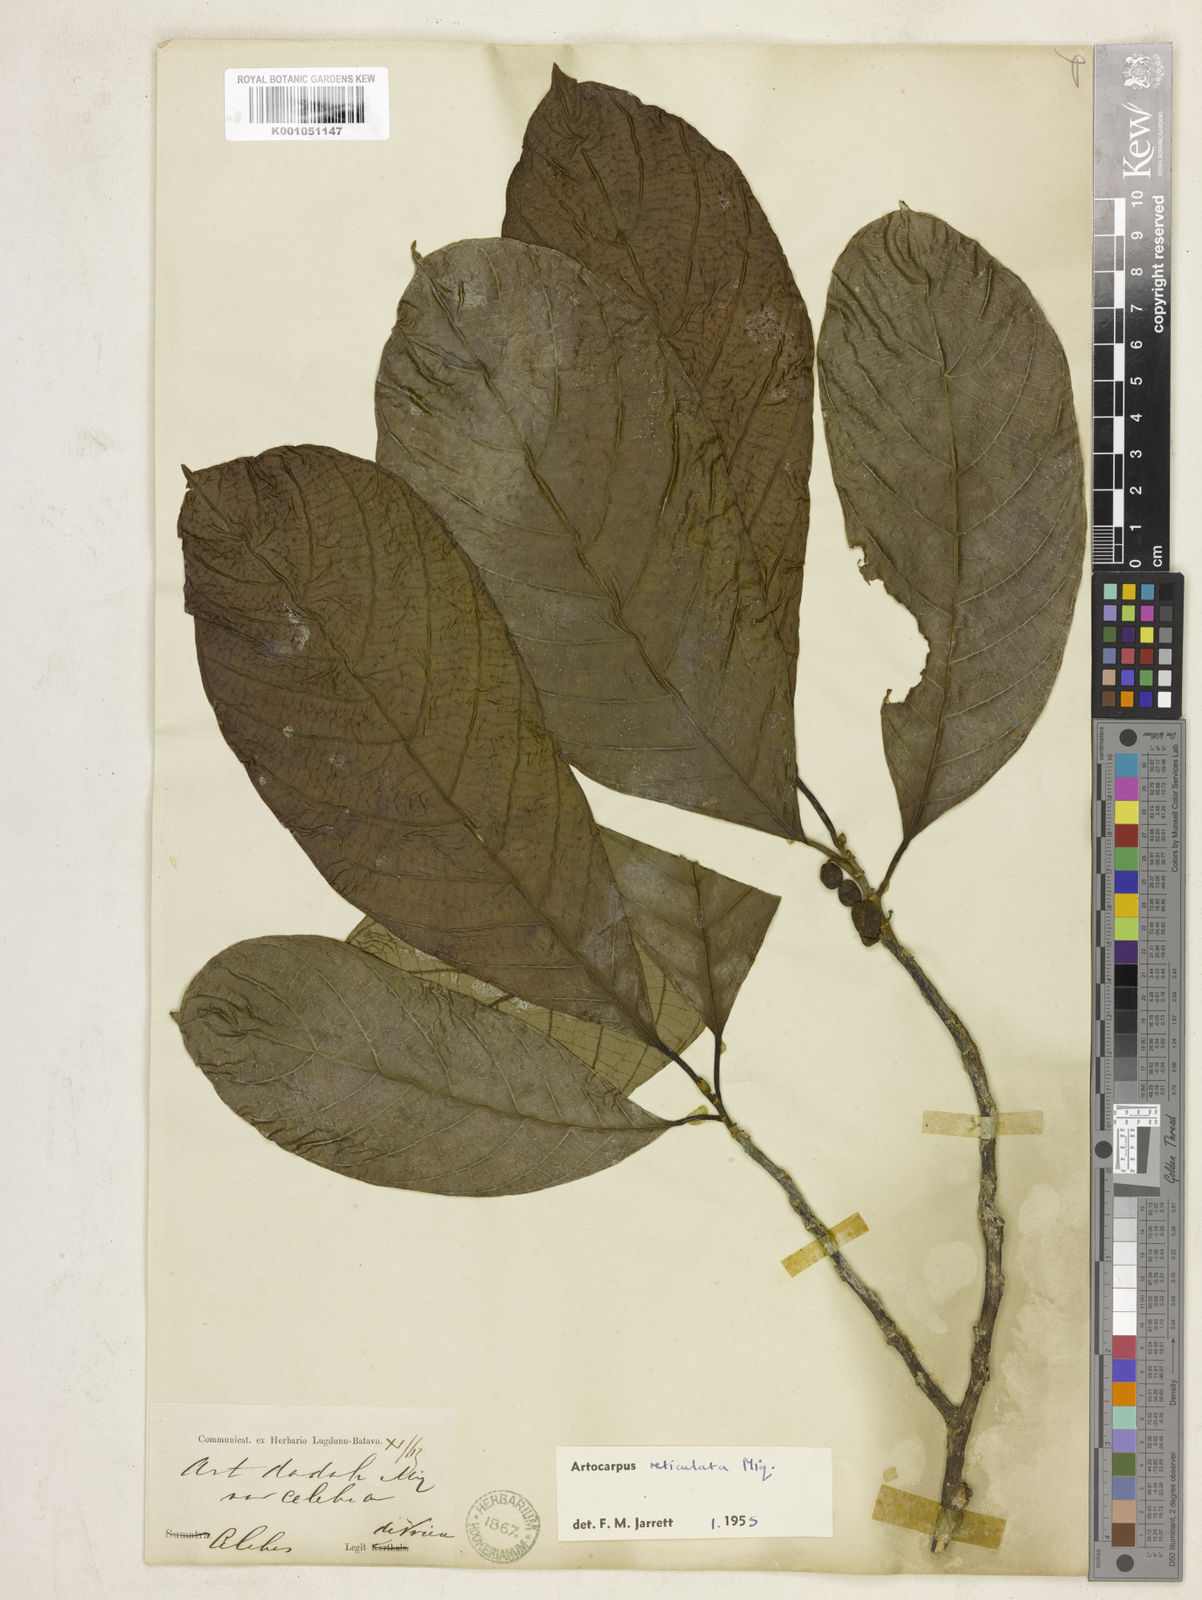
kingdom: Plantae
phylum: Tracheophyta
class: Magnoliopsida
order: Rosales
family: Moraceae
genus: Artocarpus
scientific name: Artocarpus reticulatus
